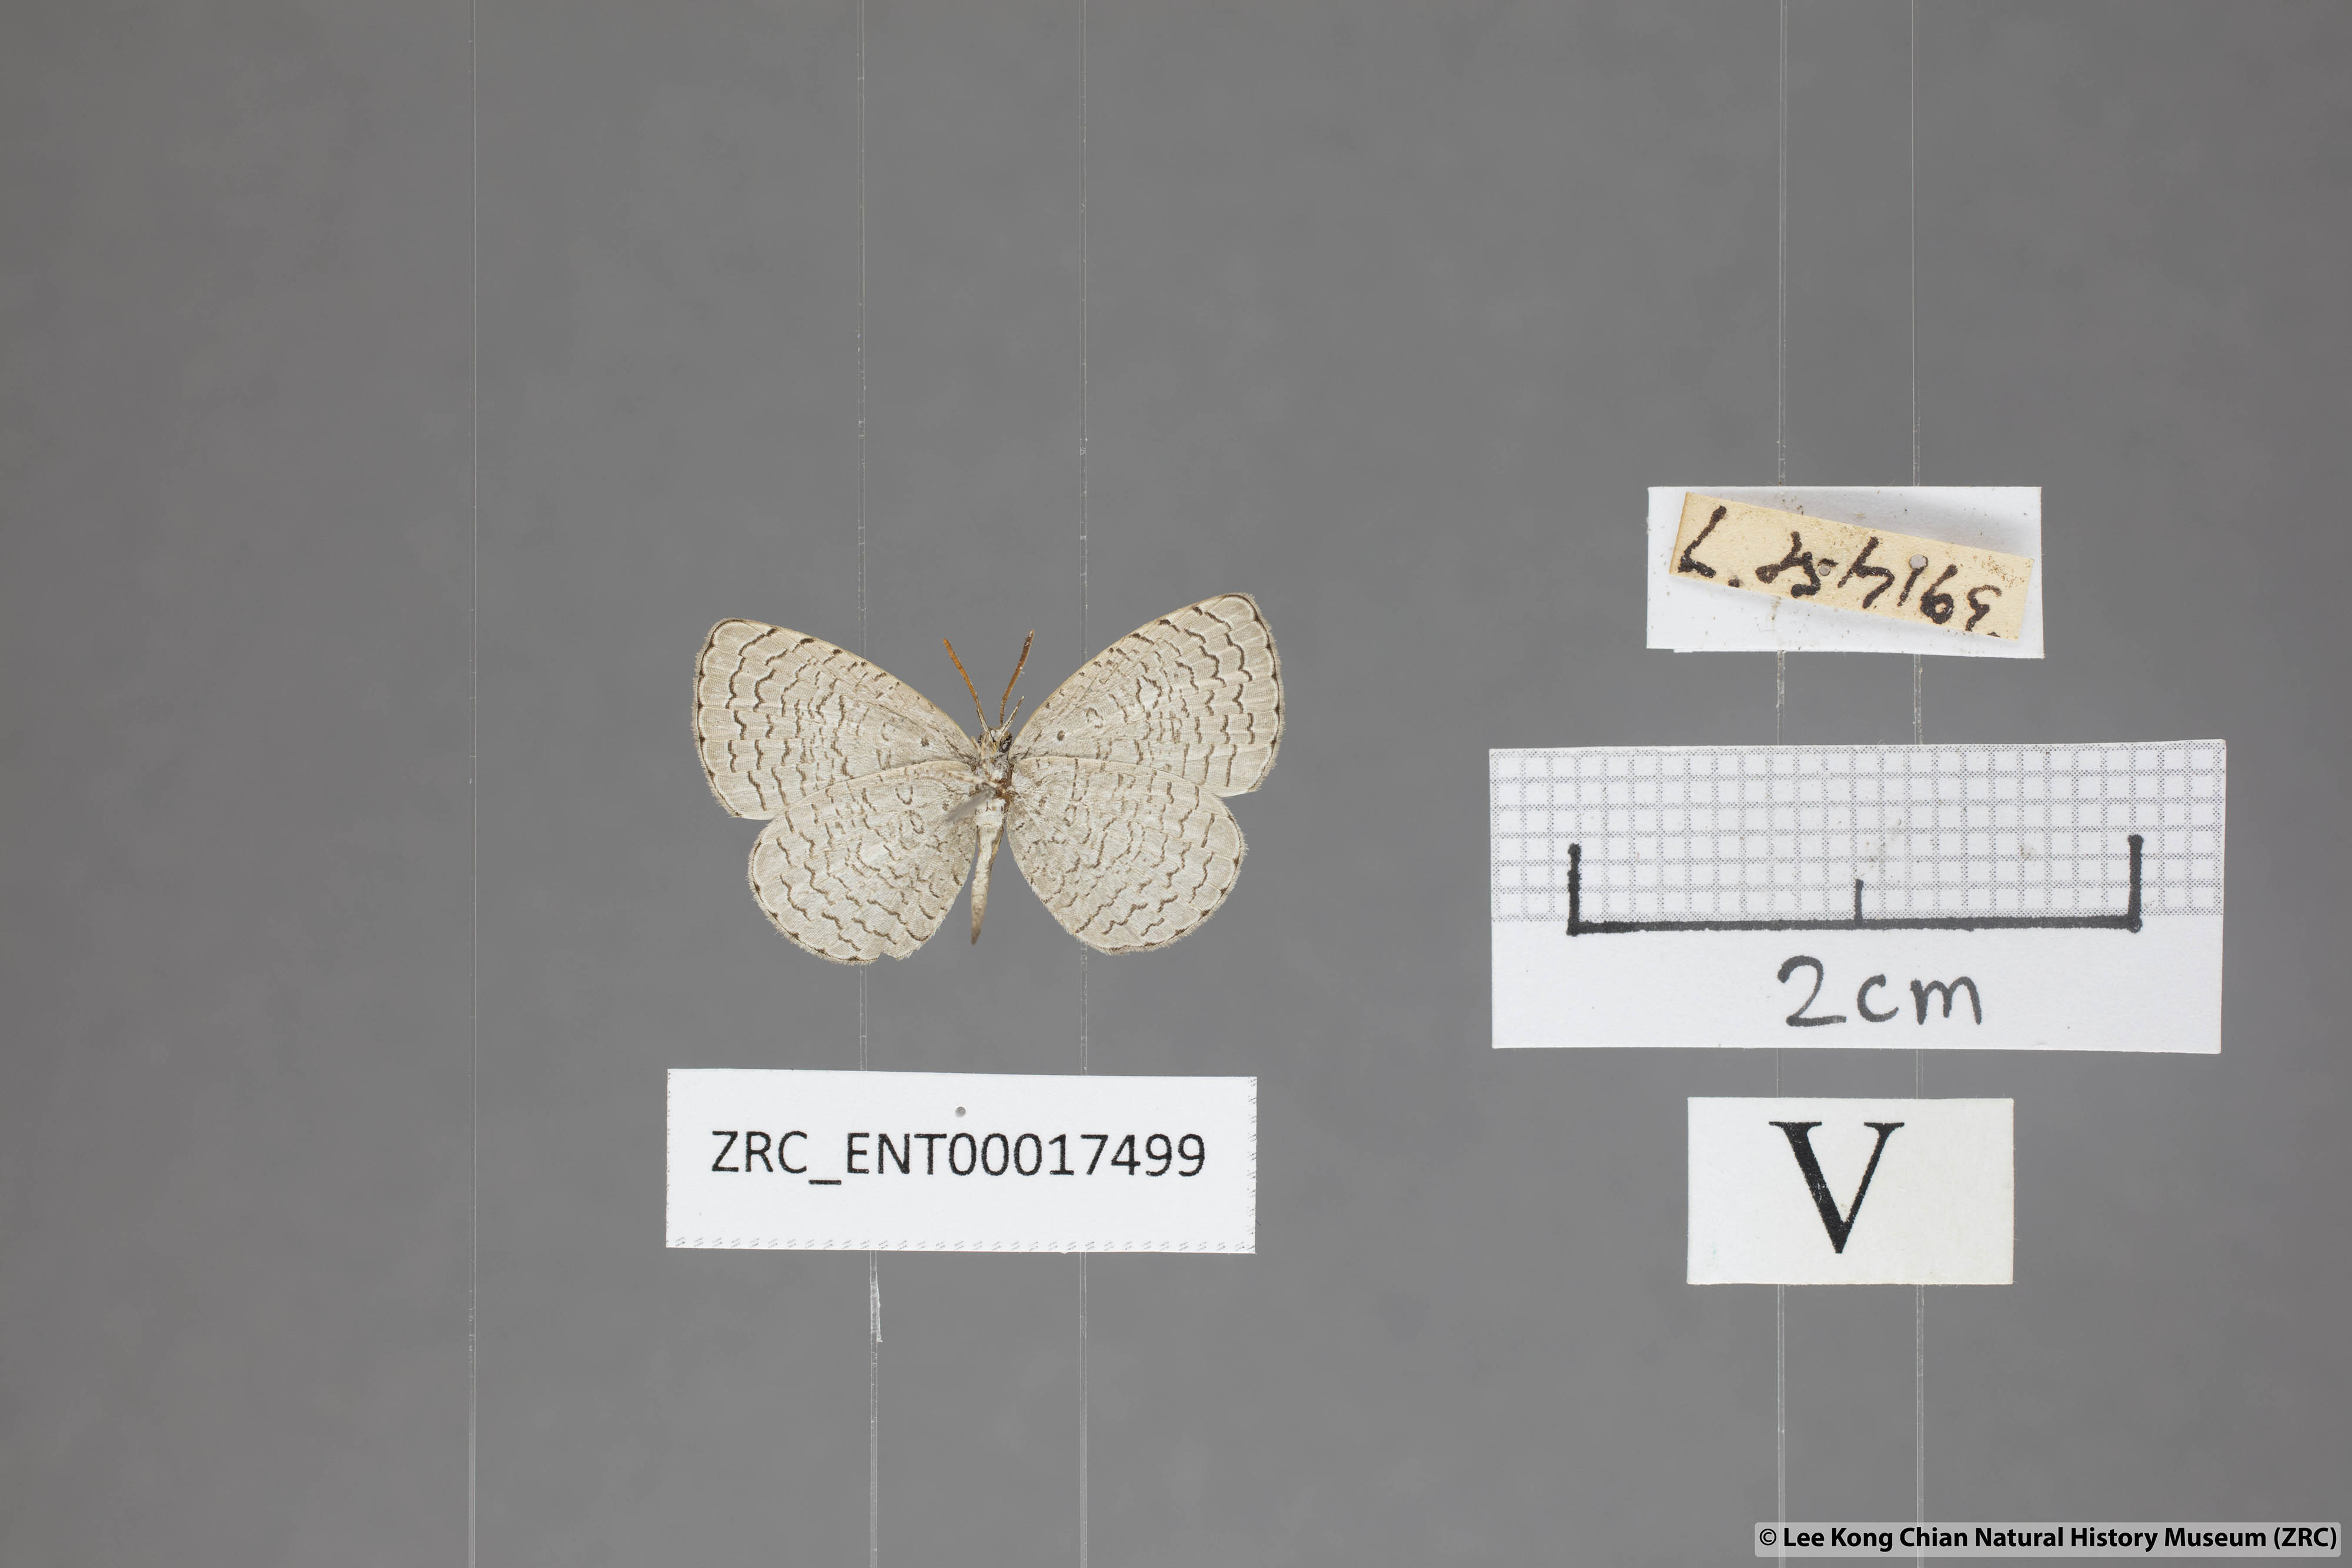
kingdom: Animalia
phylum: Arthropoda
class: Insecta
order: Lepidoptera
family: Lycaenidae
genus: Spalgis
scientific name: Spalgis epeus
